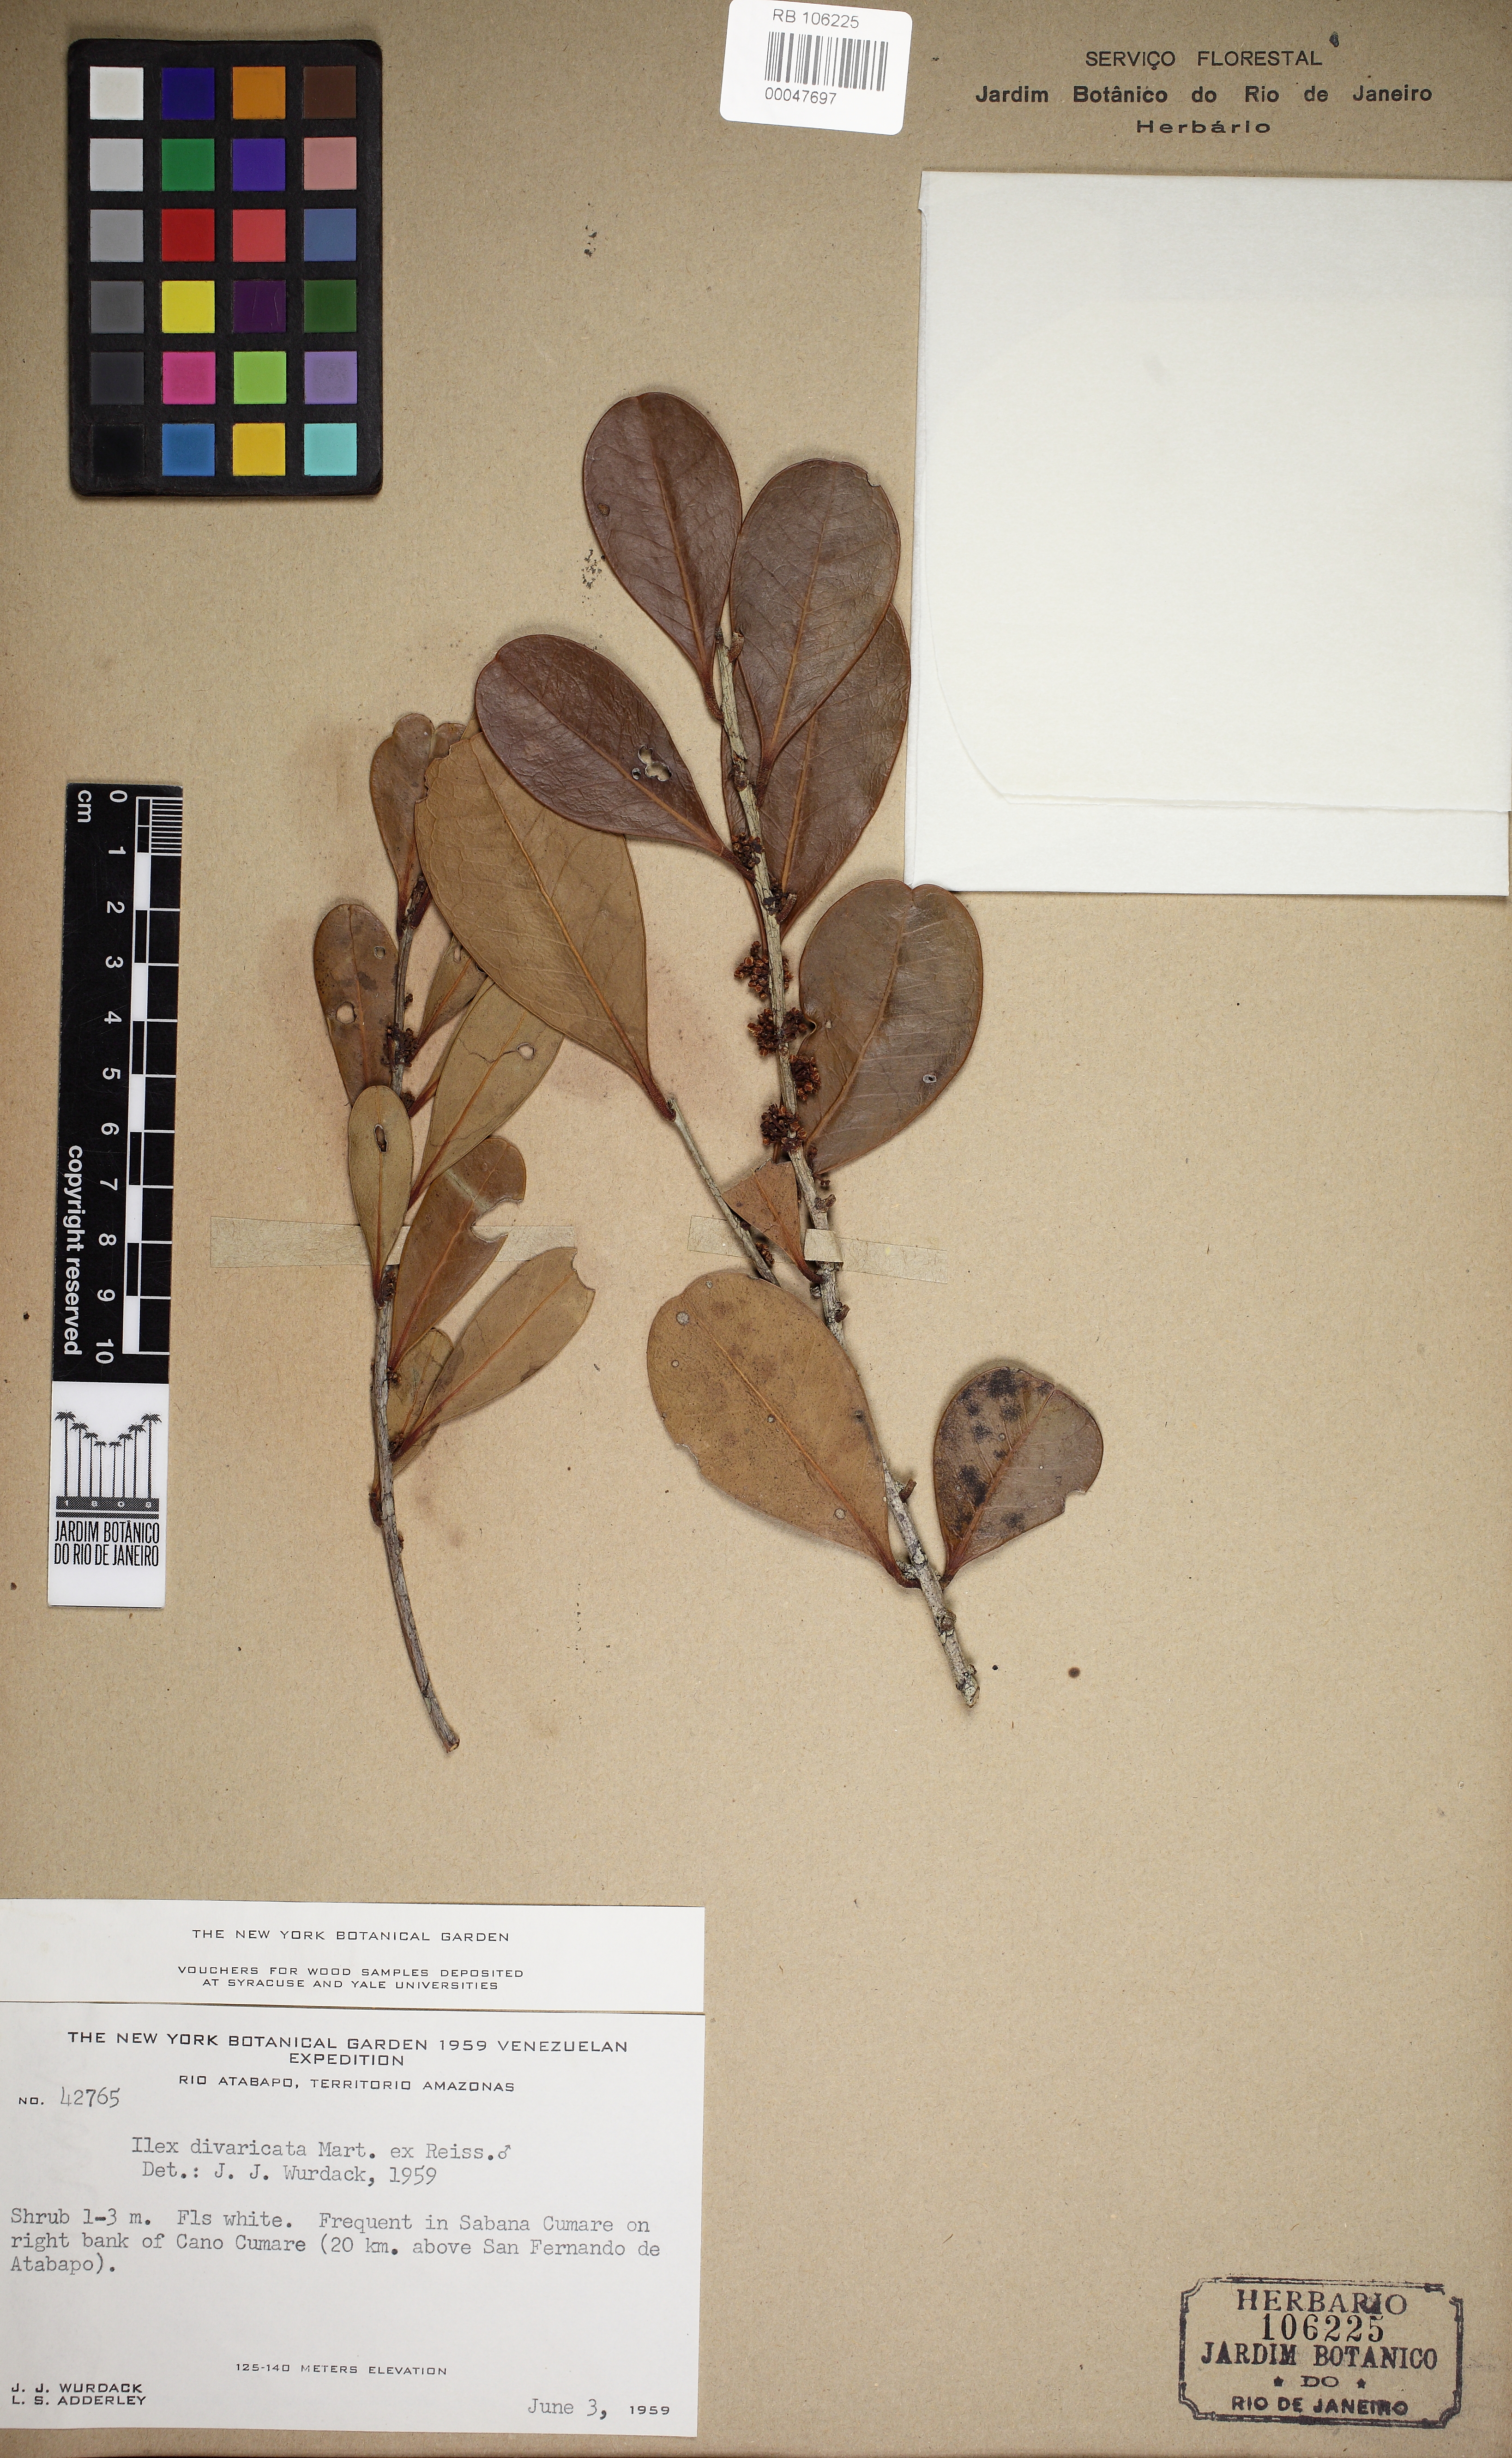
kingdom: Plantae
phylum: Tracheophyta
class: Magnoliopsida
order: Aquifoliales
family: Aquifoliaceae
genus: Ilex
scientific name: Ilex diuretica
